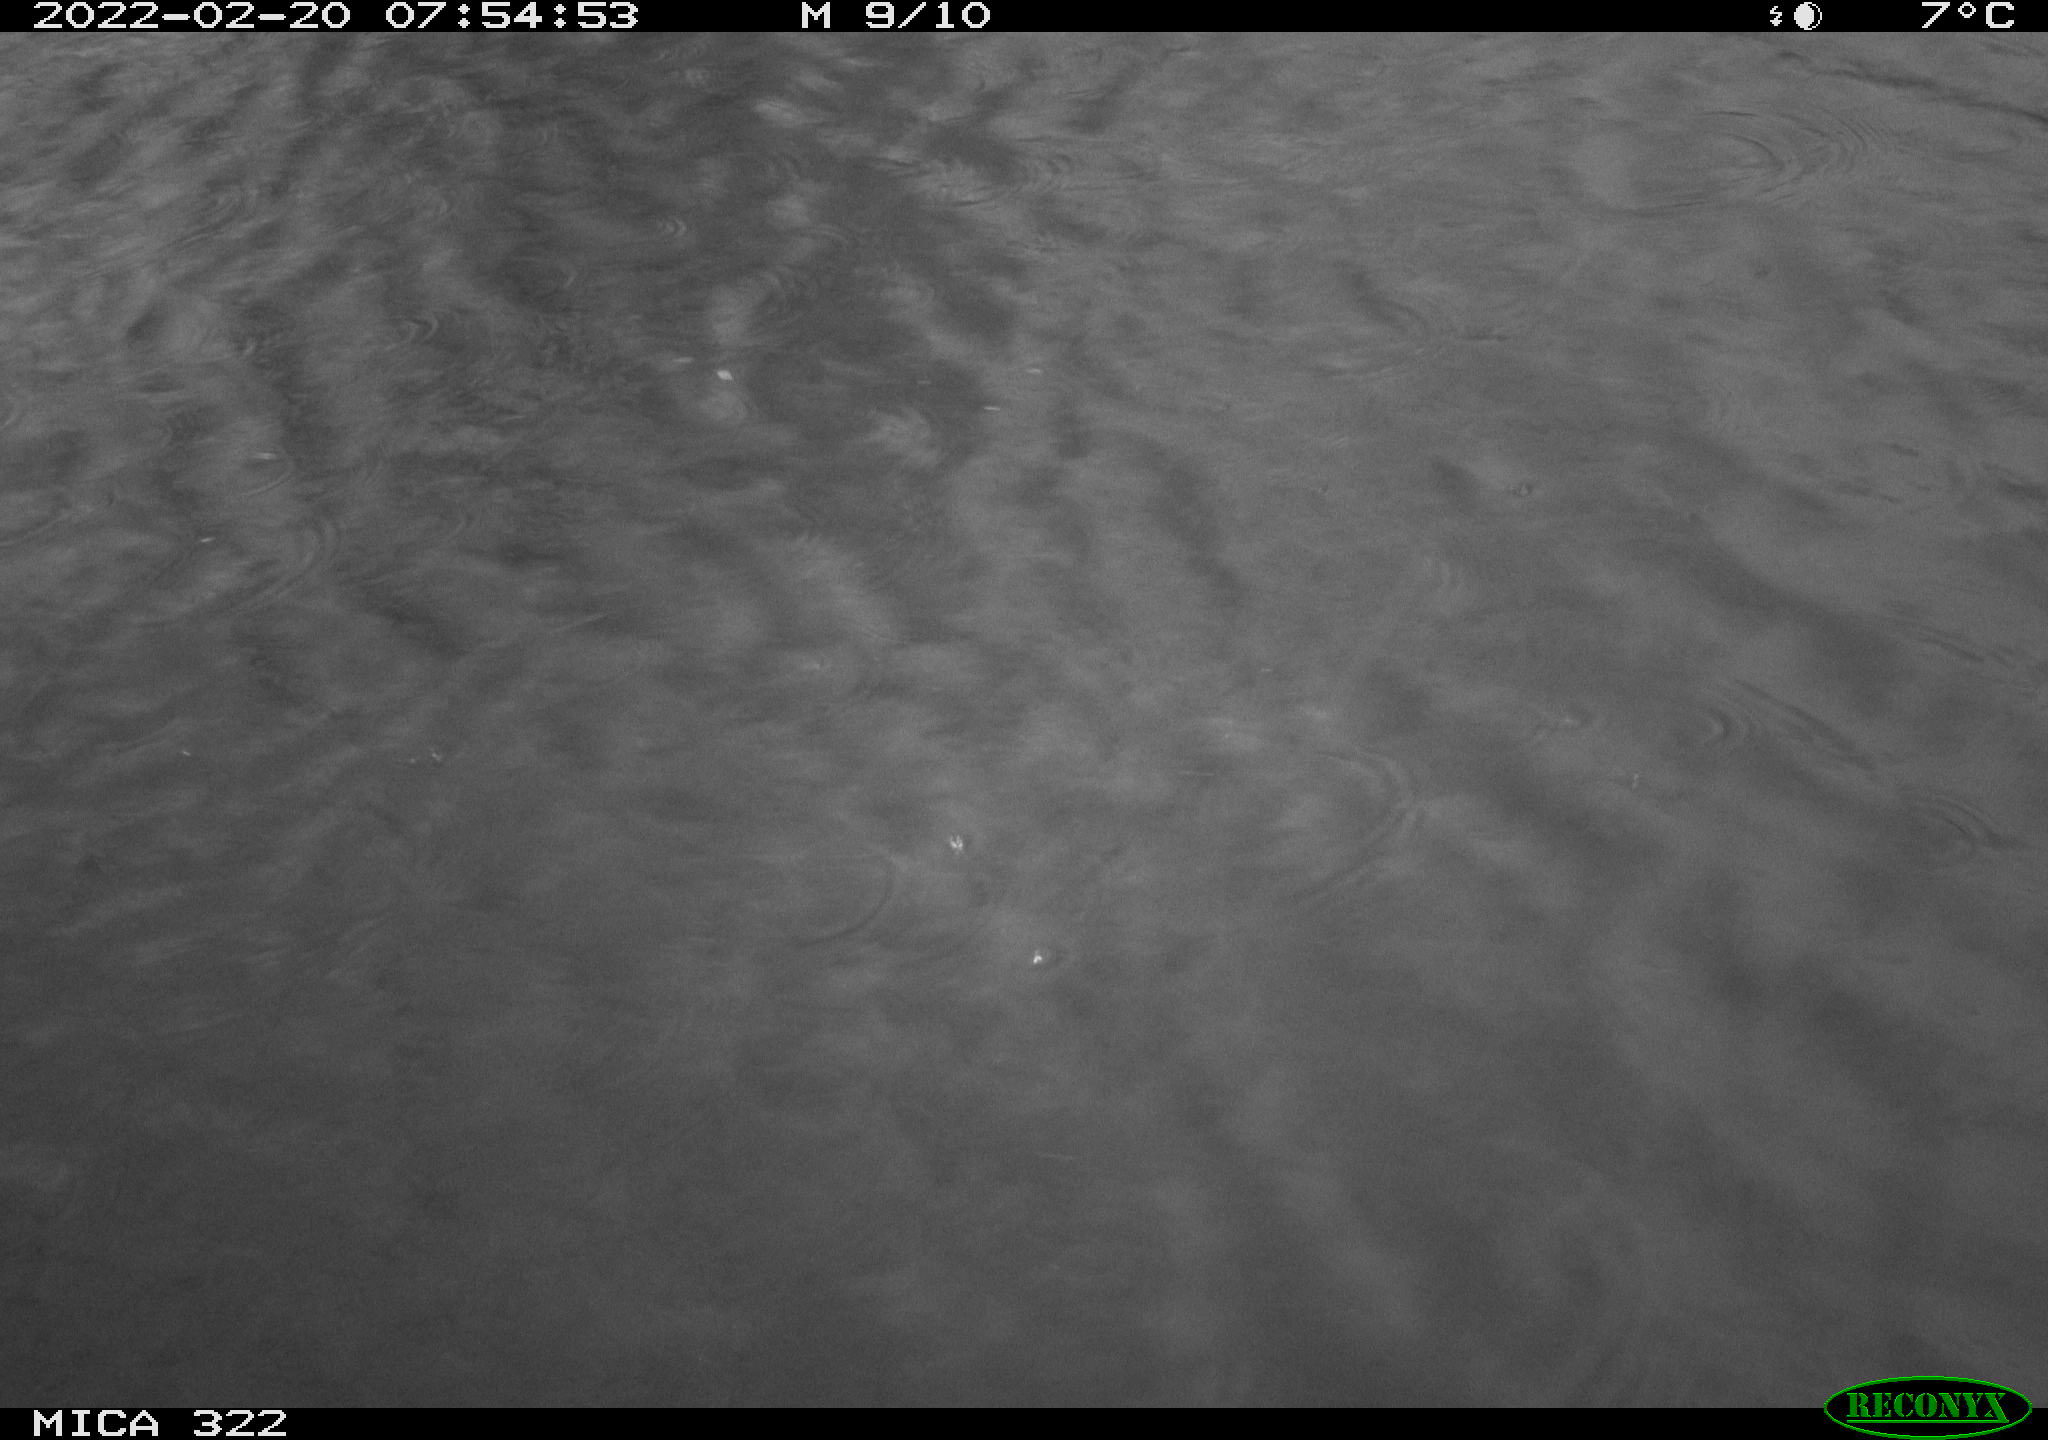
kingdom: Animalia
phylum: Chordata
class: Aves
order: Podicipediformes
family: Podicipedidae
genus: Tachybaptus
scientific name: Tachybaptus ruficollis
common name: Little grebe
